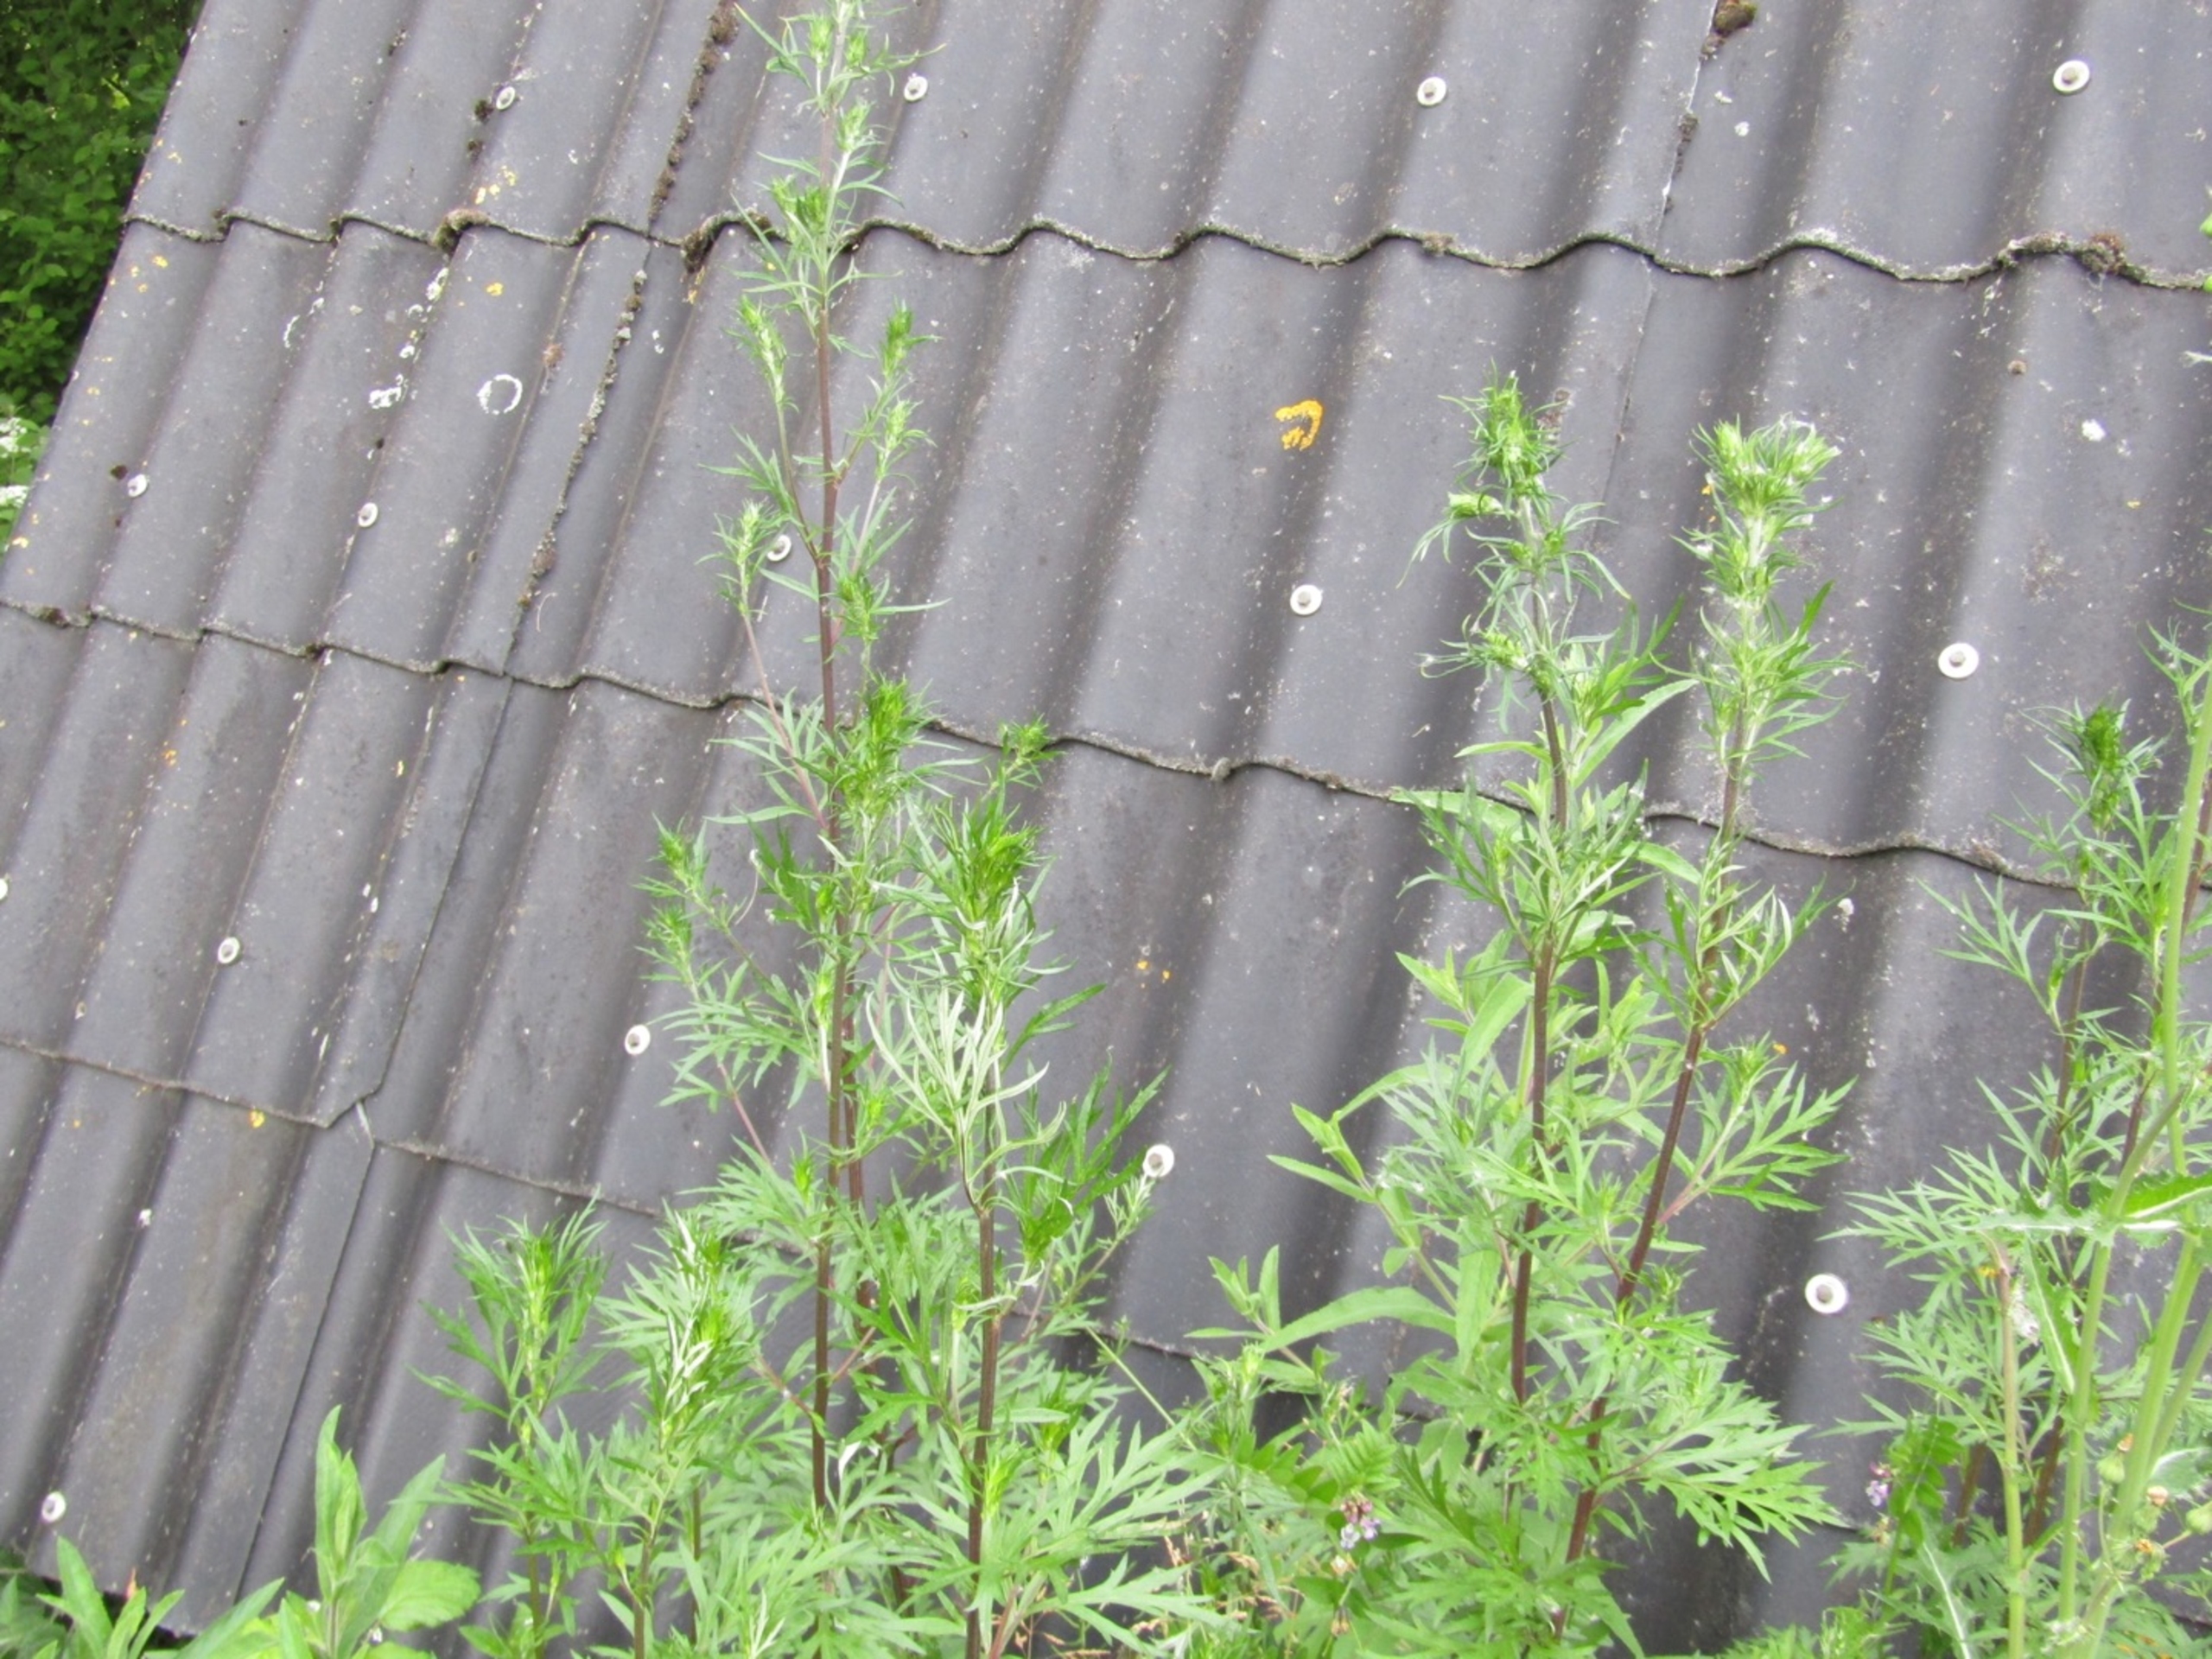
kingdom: Plantae
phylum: Tracheophyta
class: Magnoliopsida
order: Asterales
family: Asteraceae
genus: Artemisia
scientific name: Artemisia vulgaris
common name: Grå-bynke
